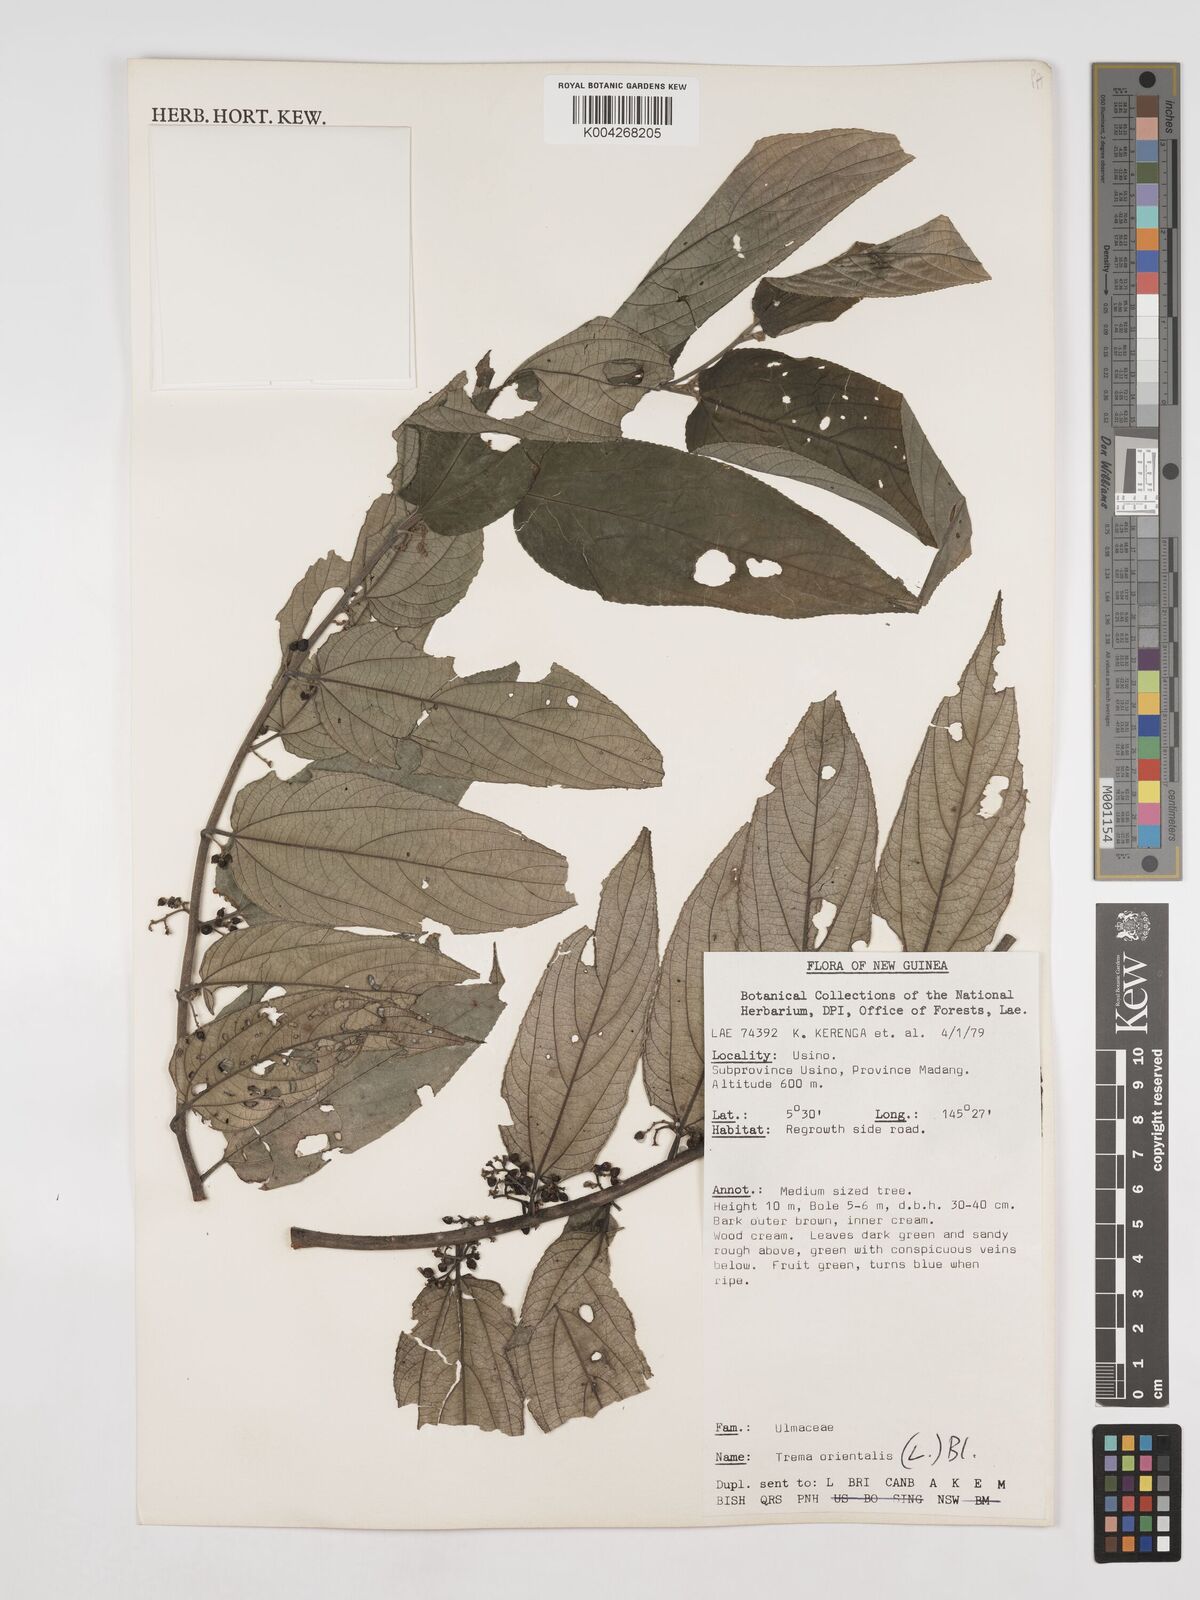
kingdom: Plantae
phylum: Tracheophyta
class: Magnoliopsida
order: Rosales
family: Cannabaceae
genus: Trema
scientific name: Trema orientale
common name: Indian charcoal tree
